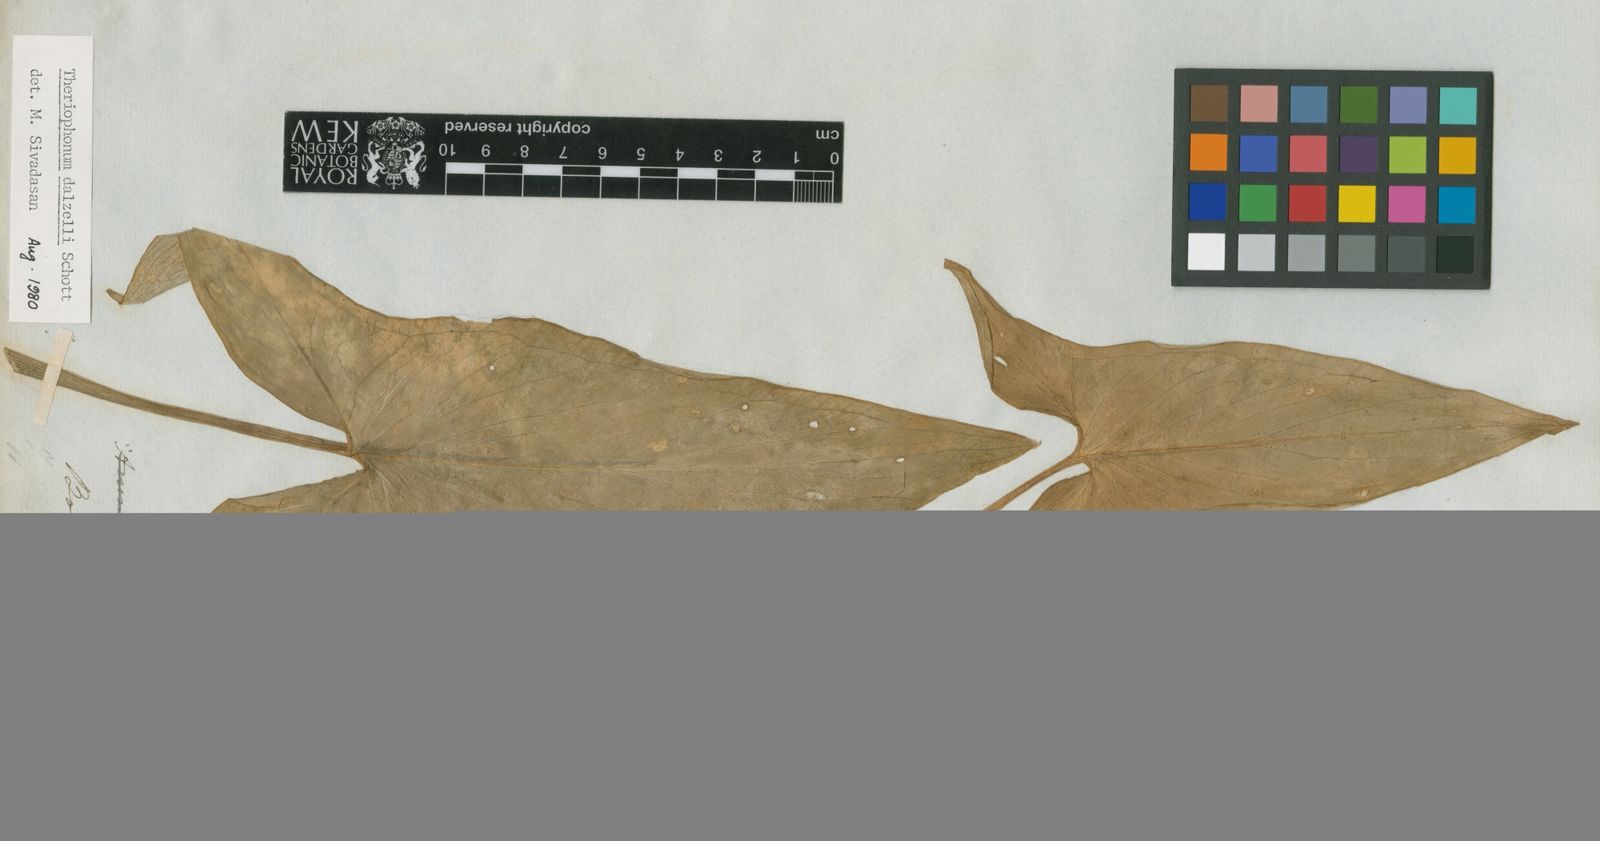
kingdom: Plantae
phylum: Tracheophyta
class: Liliopsida
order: Alismatales
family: Araceae
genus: Typhonium
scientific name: Typhonium bulbiferum
